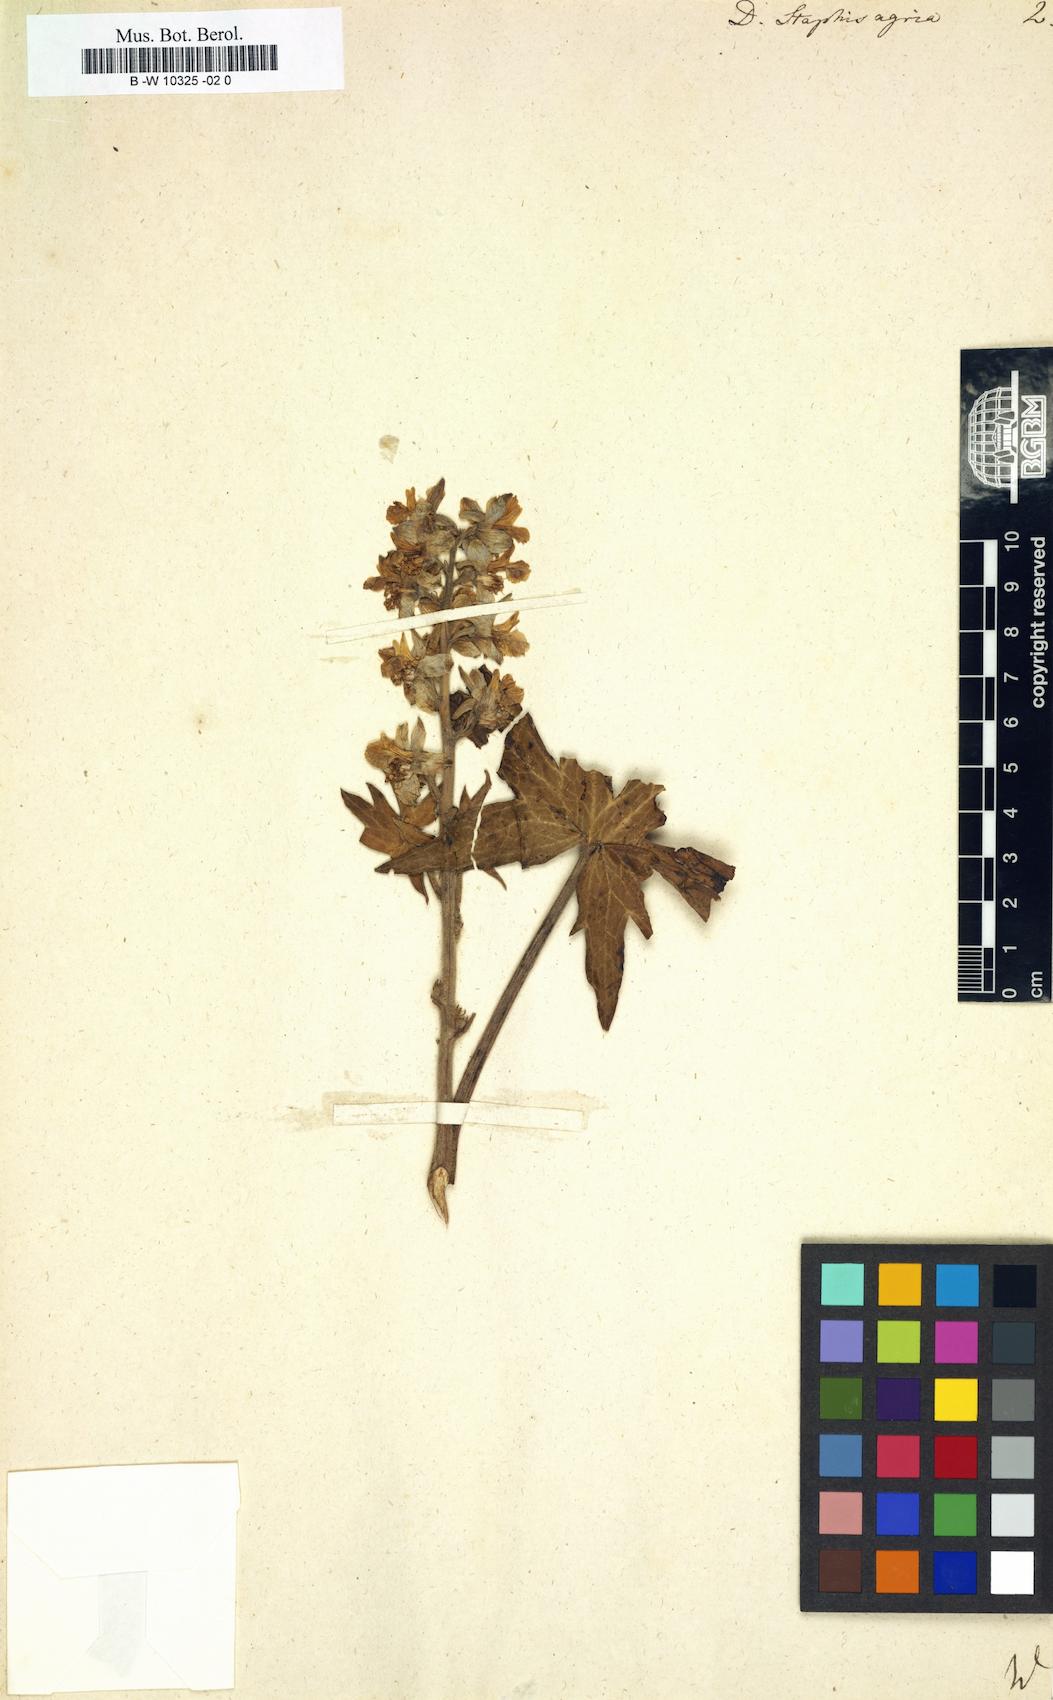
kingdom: Plantae
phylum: Tracheophyta
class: Magnoliopsida
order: Ranunculales
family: Ranunculaceae
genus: Staphisagria
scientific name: Staphisagria macrosperma
